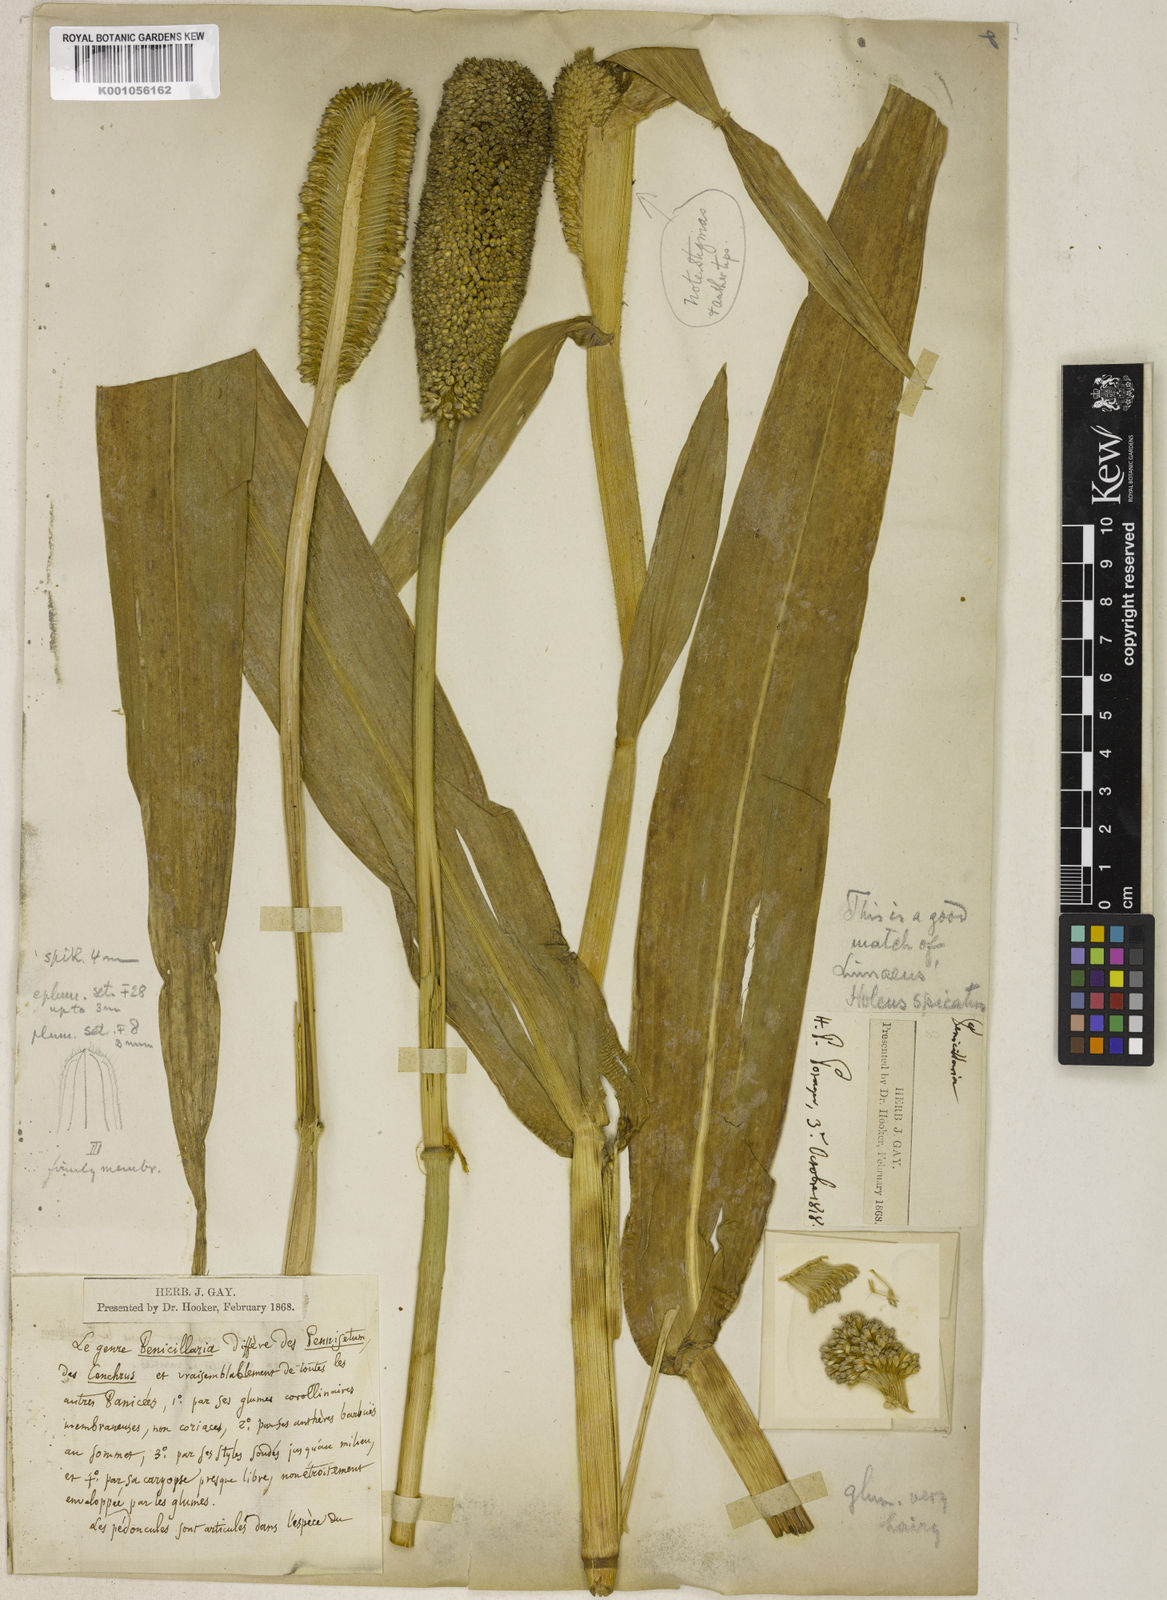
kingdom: Plantae
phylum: Tracheophyta
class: Liliopsida
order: Poales
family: Poaceae
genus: Cenchrus
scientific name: Cenchrus americanus
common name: Pearl millet
